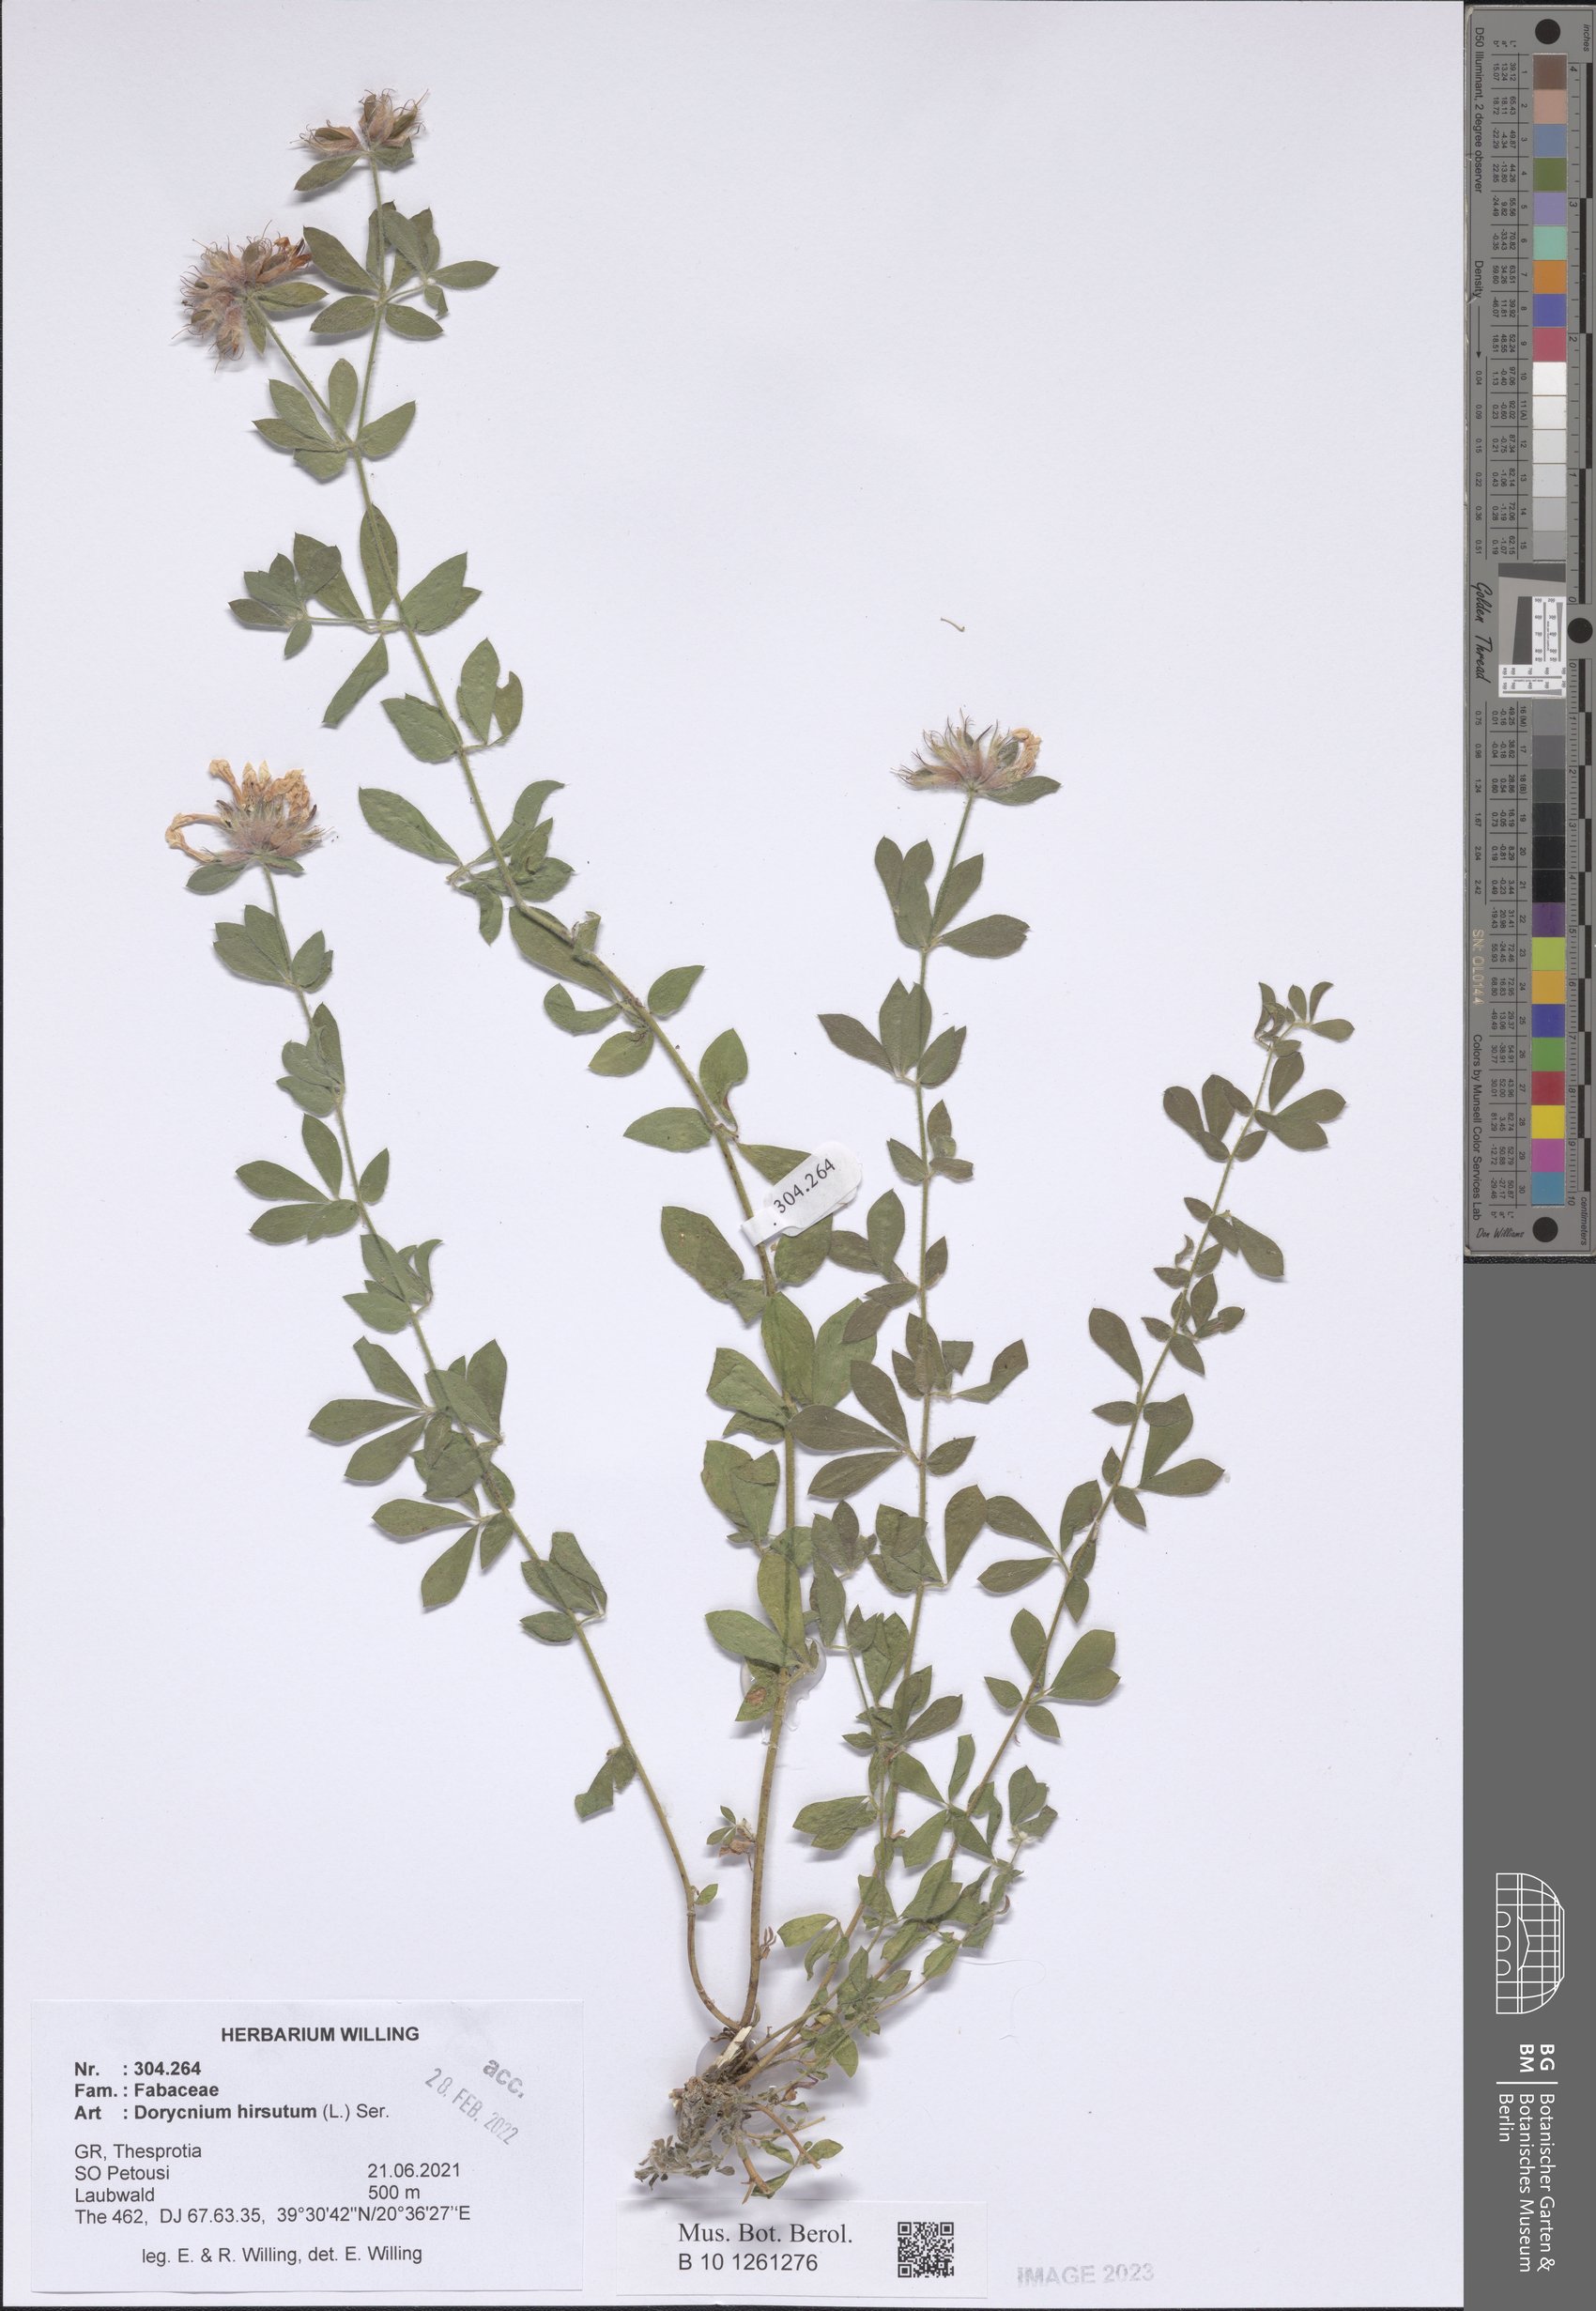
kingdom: Plantae
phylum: Tracheophyta
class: Magnoliopsida
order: Fabales
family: Fabaceae
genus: Lotus
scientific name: Lotus hirsutus
